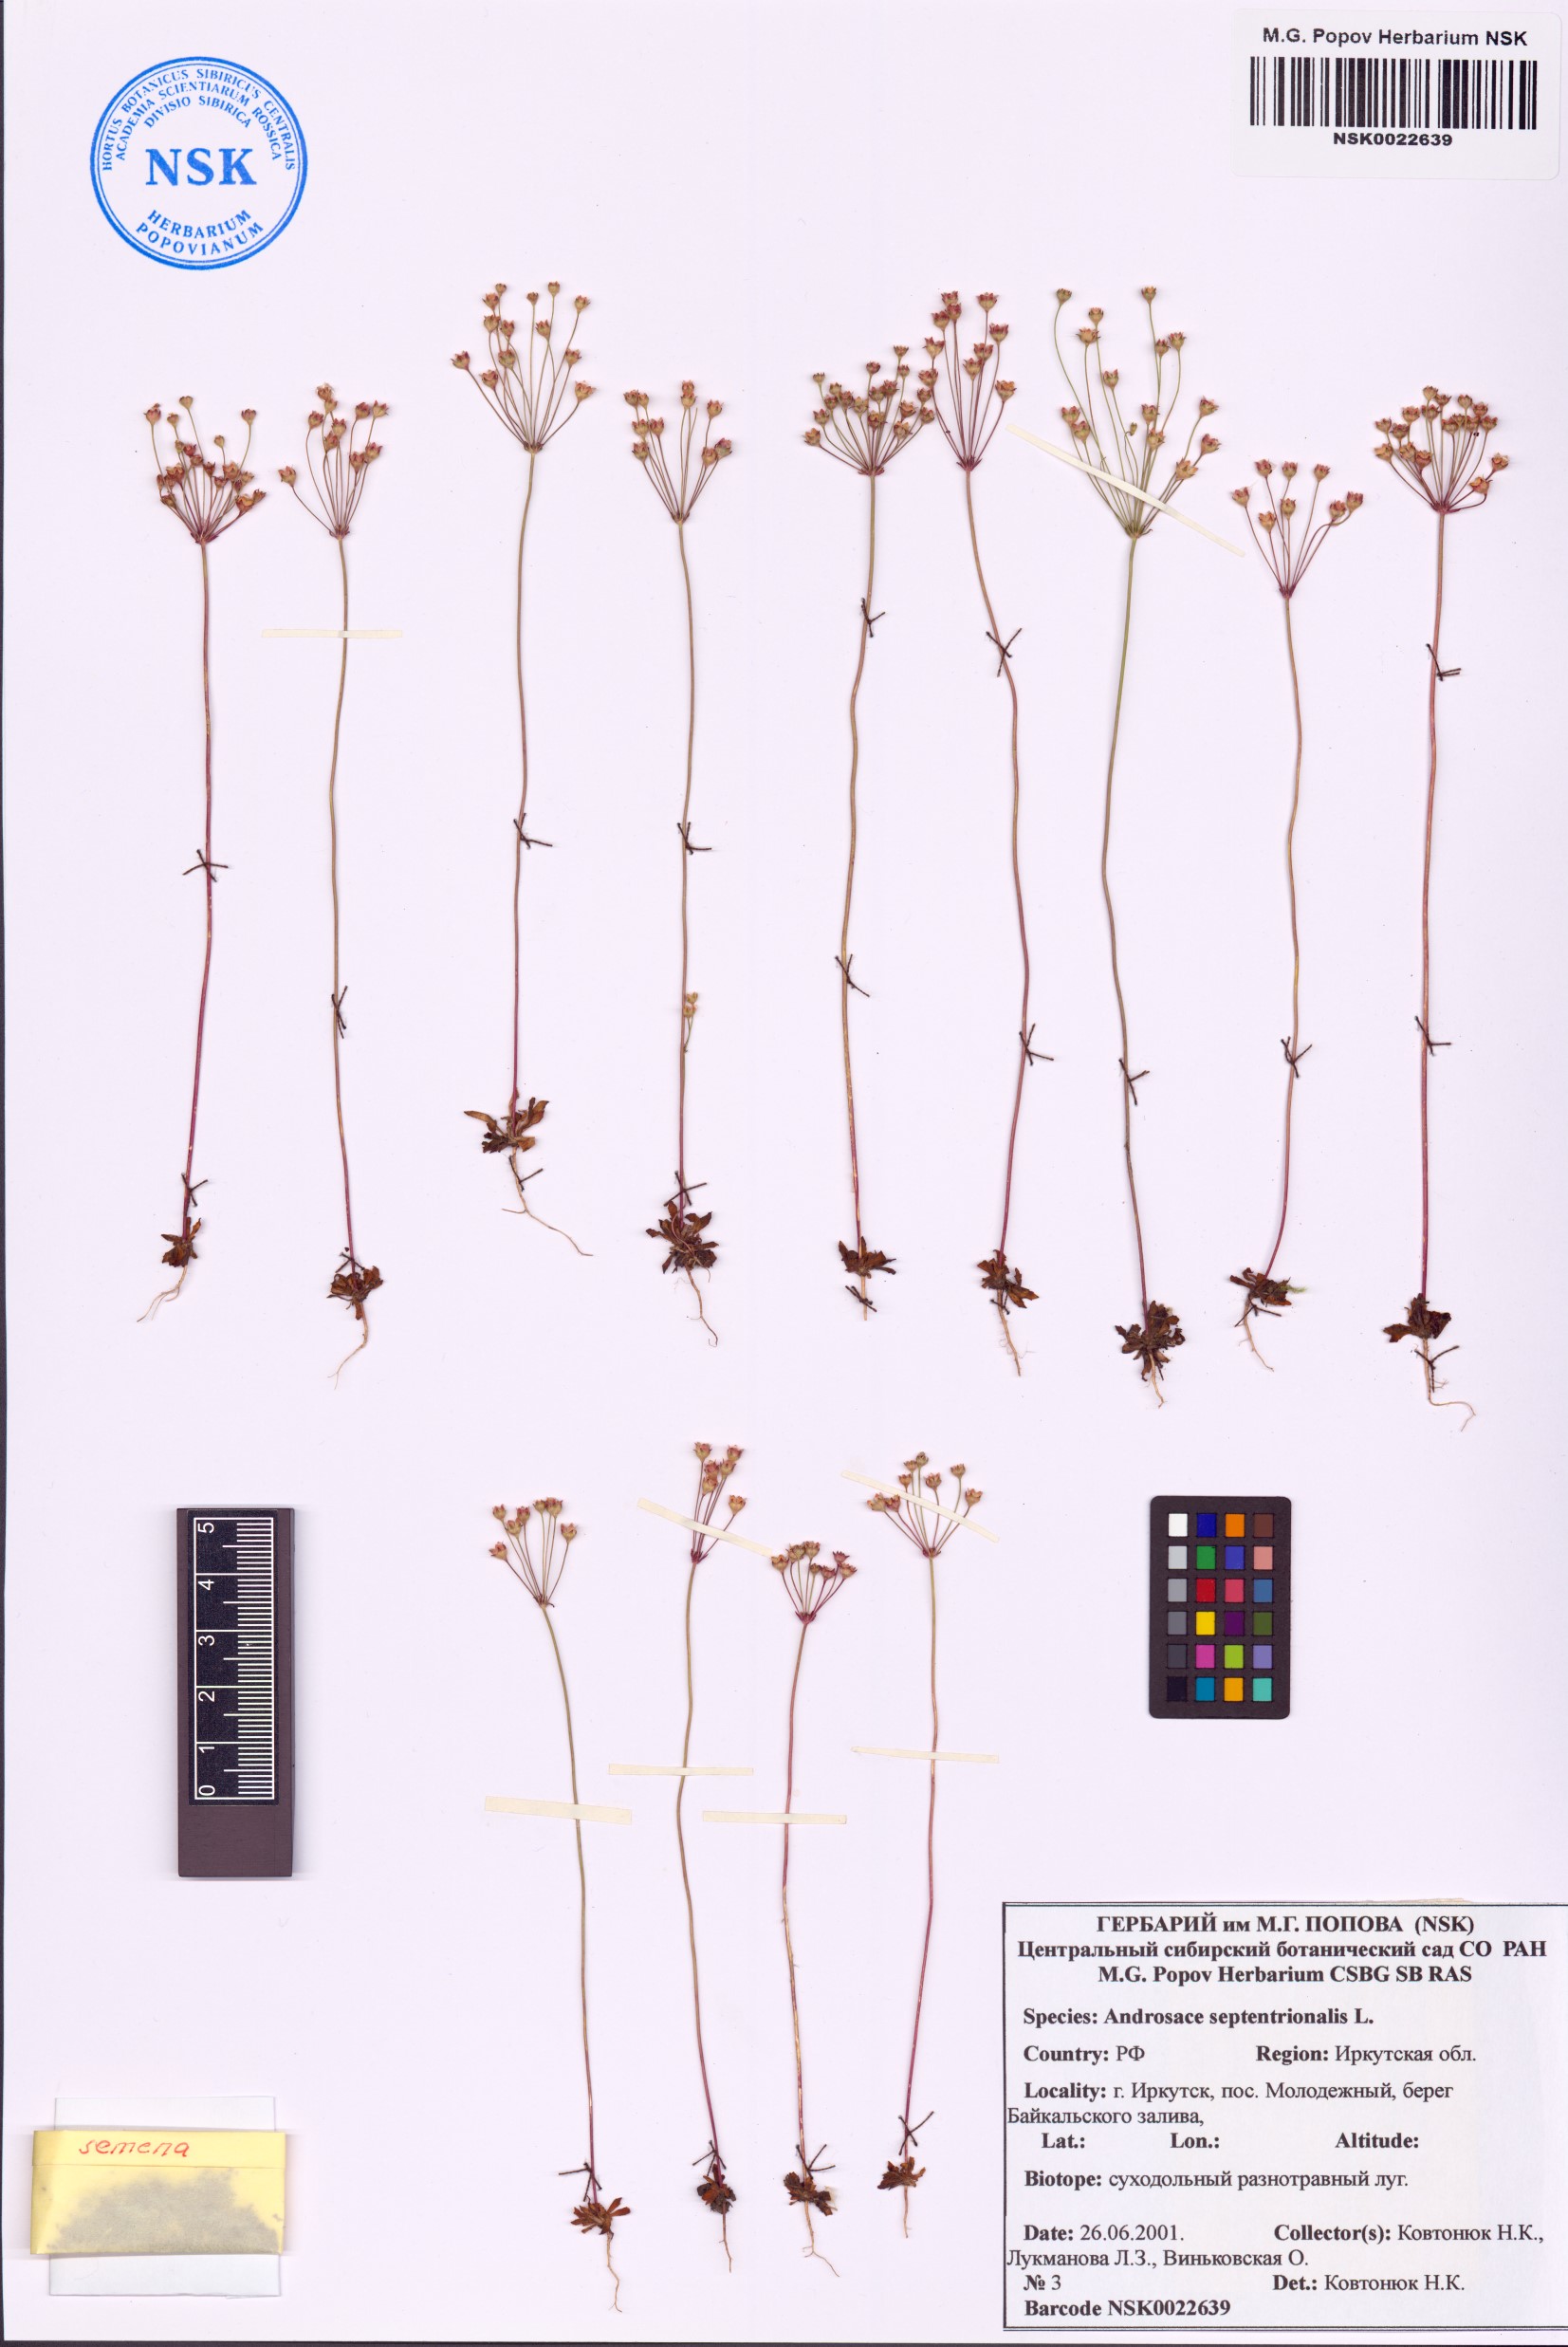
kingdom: Plantae
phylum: Tracheophyta
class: Magnoliopsida
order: Ericales
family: Primulaceae
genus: Androsace
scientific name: Androsace septentrionalis
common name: Hairy northern fairy-candelabra
